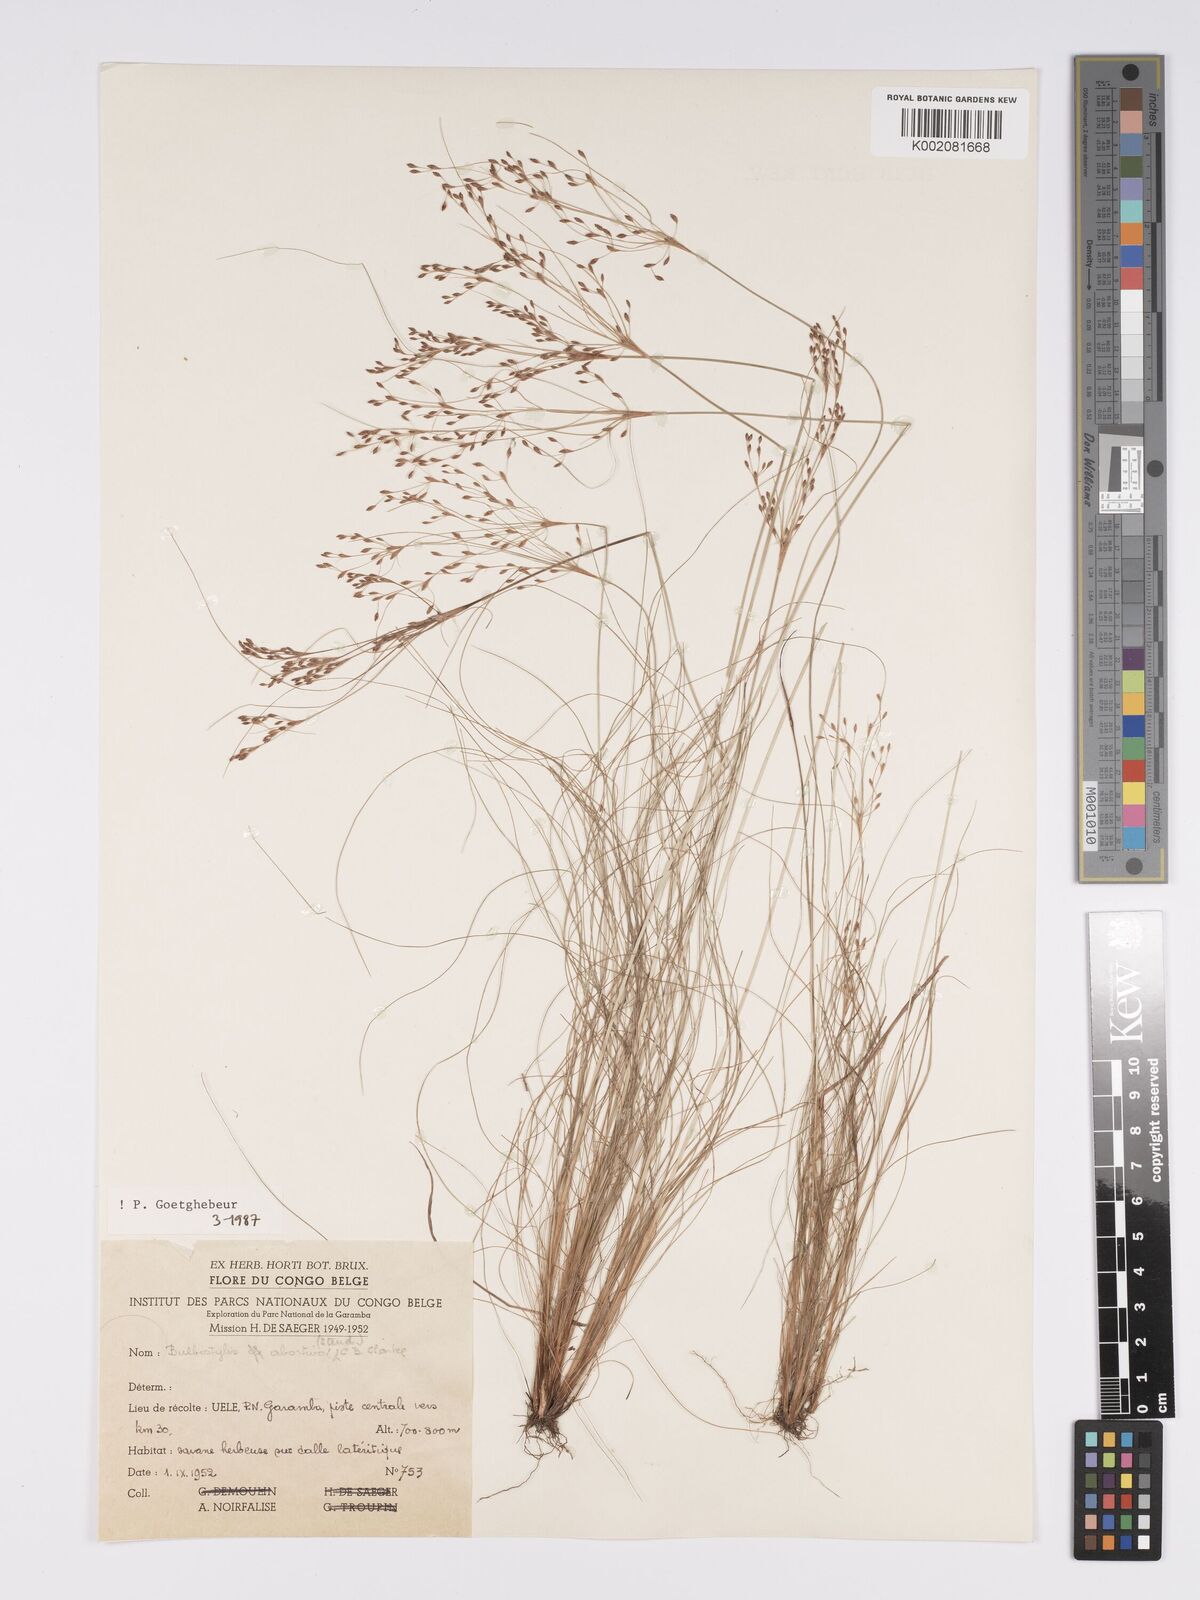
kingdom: Plantae
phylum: Tracheophyta
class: Liliopsida
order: Poales
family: Cyperaceae
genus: Bulbostylis
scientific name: Bulbostylis abortiva
